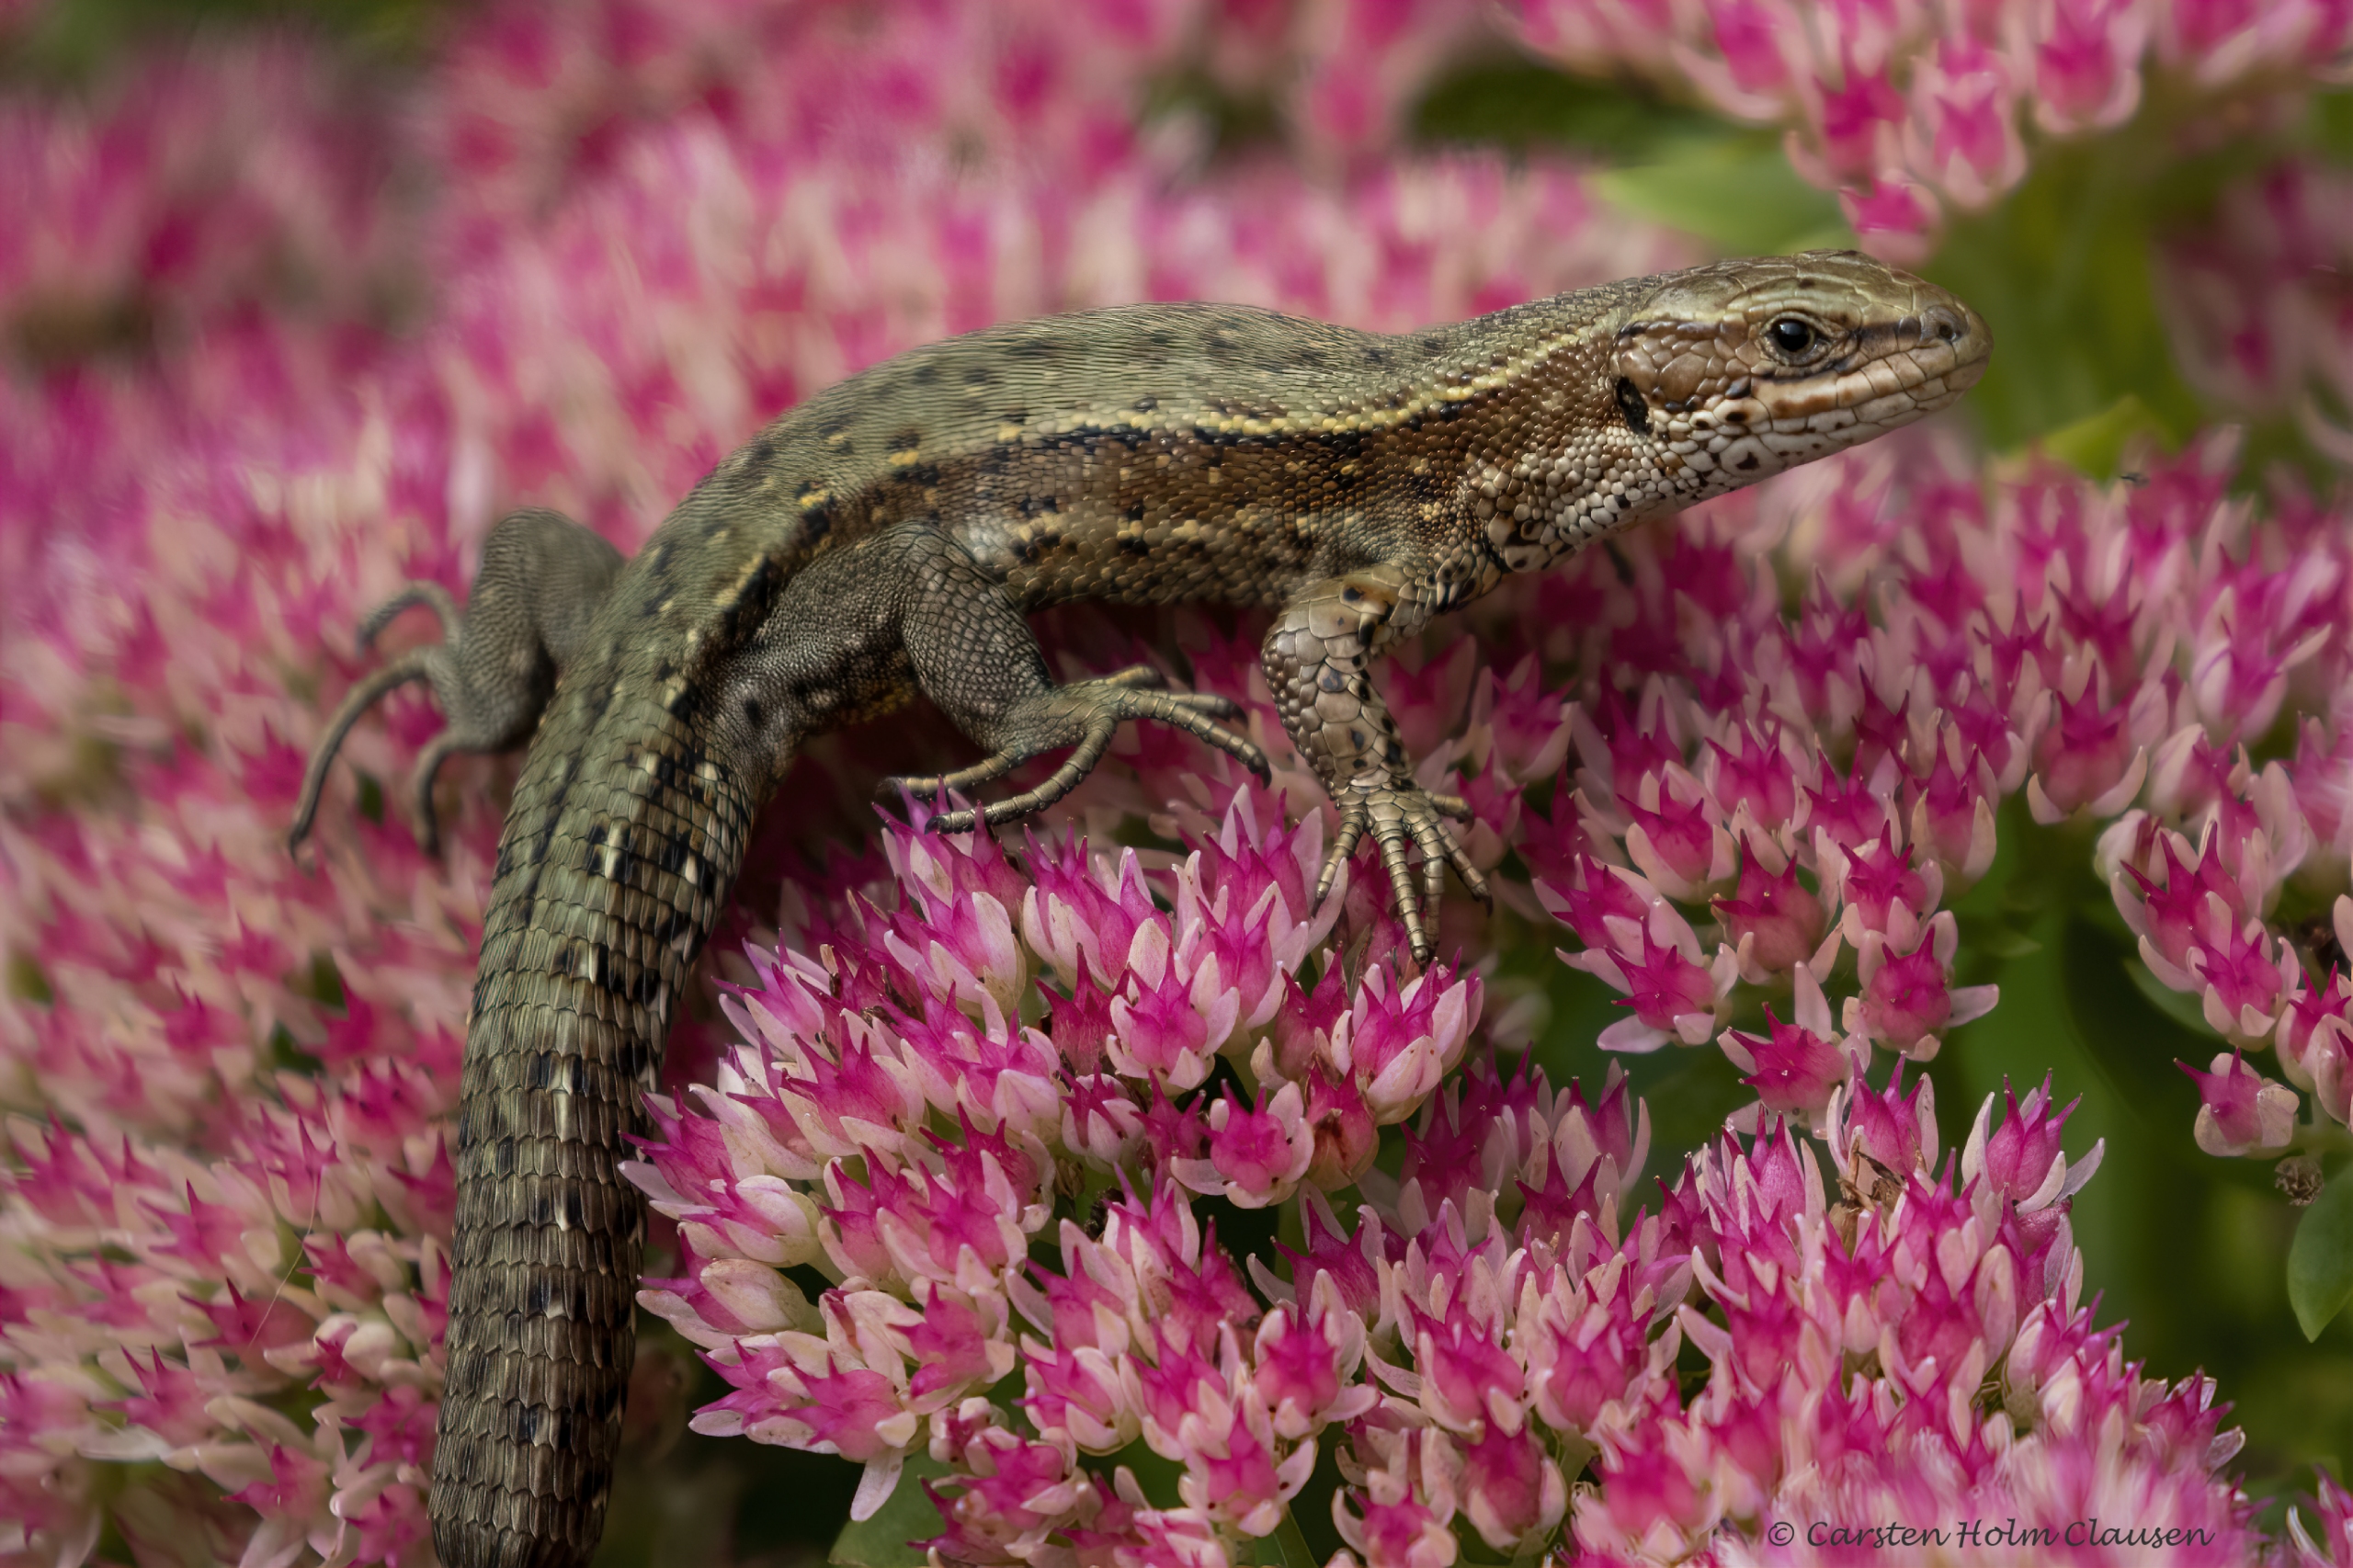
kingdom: Animalia
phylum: Chordata
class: Squamata
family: Lacertidae
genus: Zootoca
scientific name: Zootoca vivipara
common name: Skovfirben
